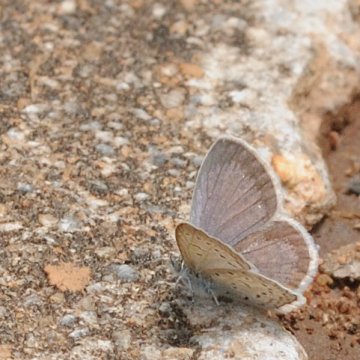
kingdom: Animalia
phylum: Arthropoda
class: Insecta
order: Lepidoptera
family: Lycaenidae
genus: Zizeeria
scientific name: Zizeeria knysna
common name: Dark Grass Blue
